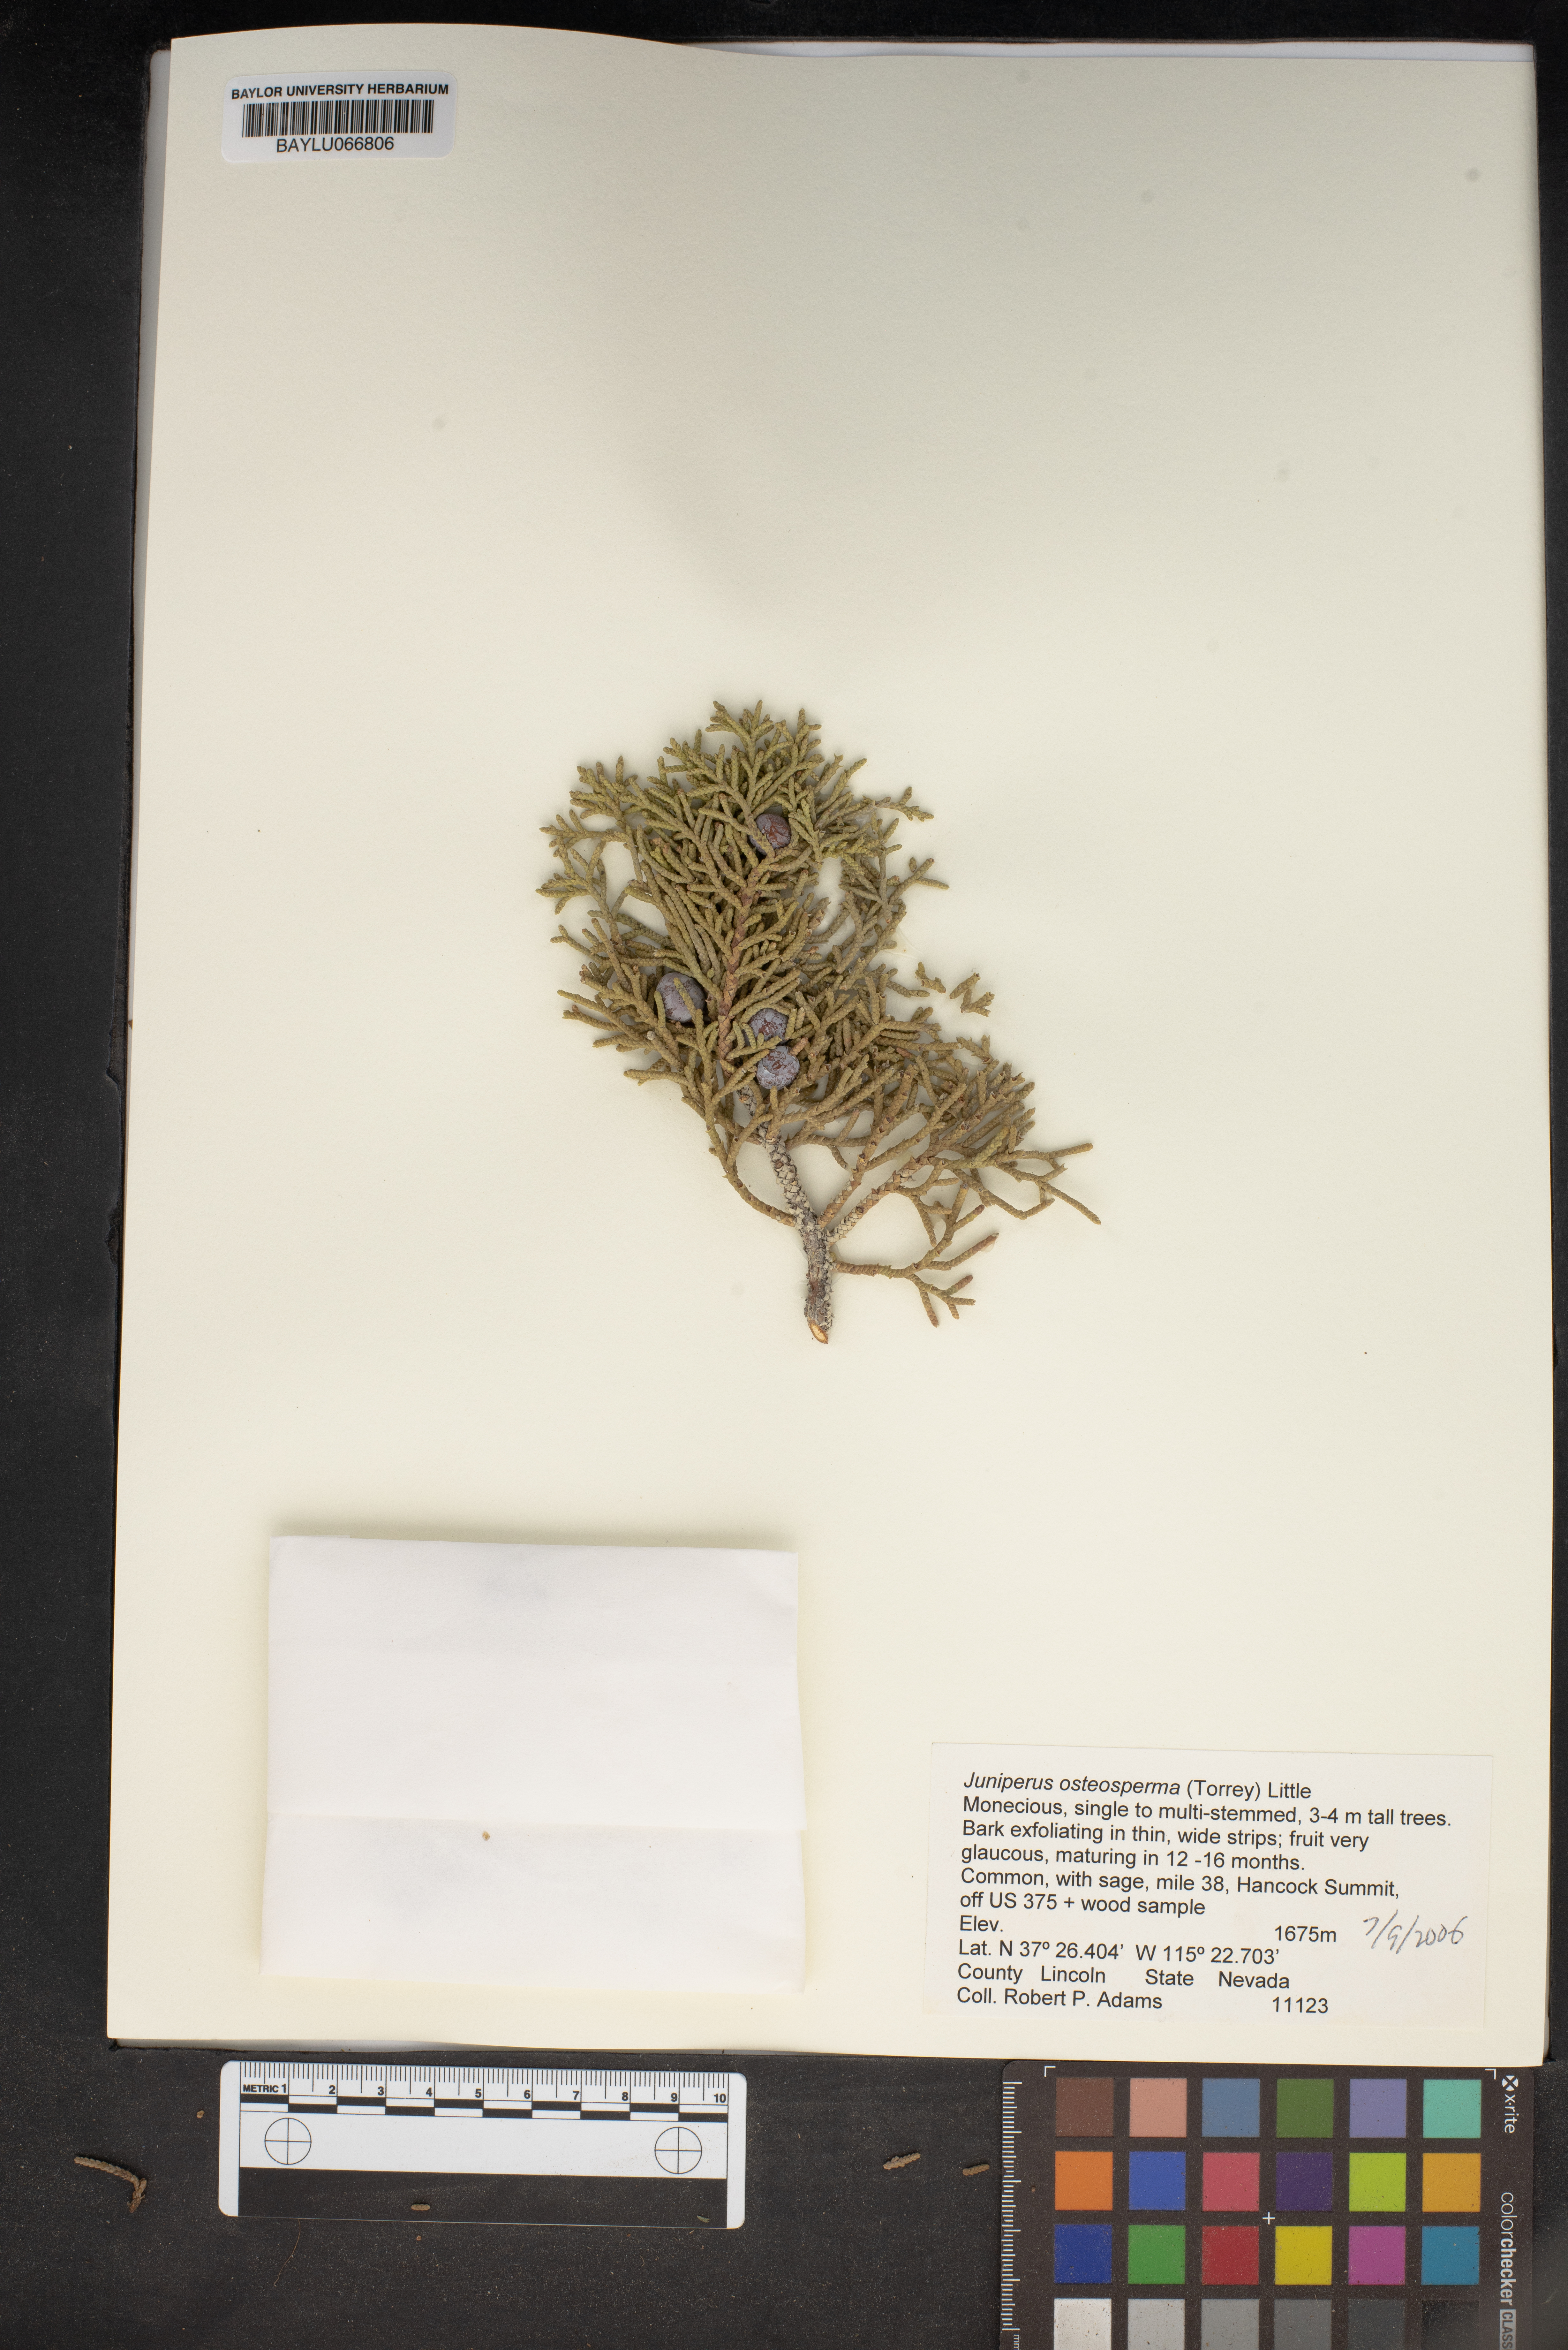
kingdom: Plantae
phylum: Tracheophyta
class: Pinopsida
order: Pinales
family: Cupressaceae
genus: Juniperus
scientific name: Juniperus osteosperma
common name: Utah juniper
